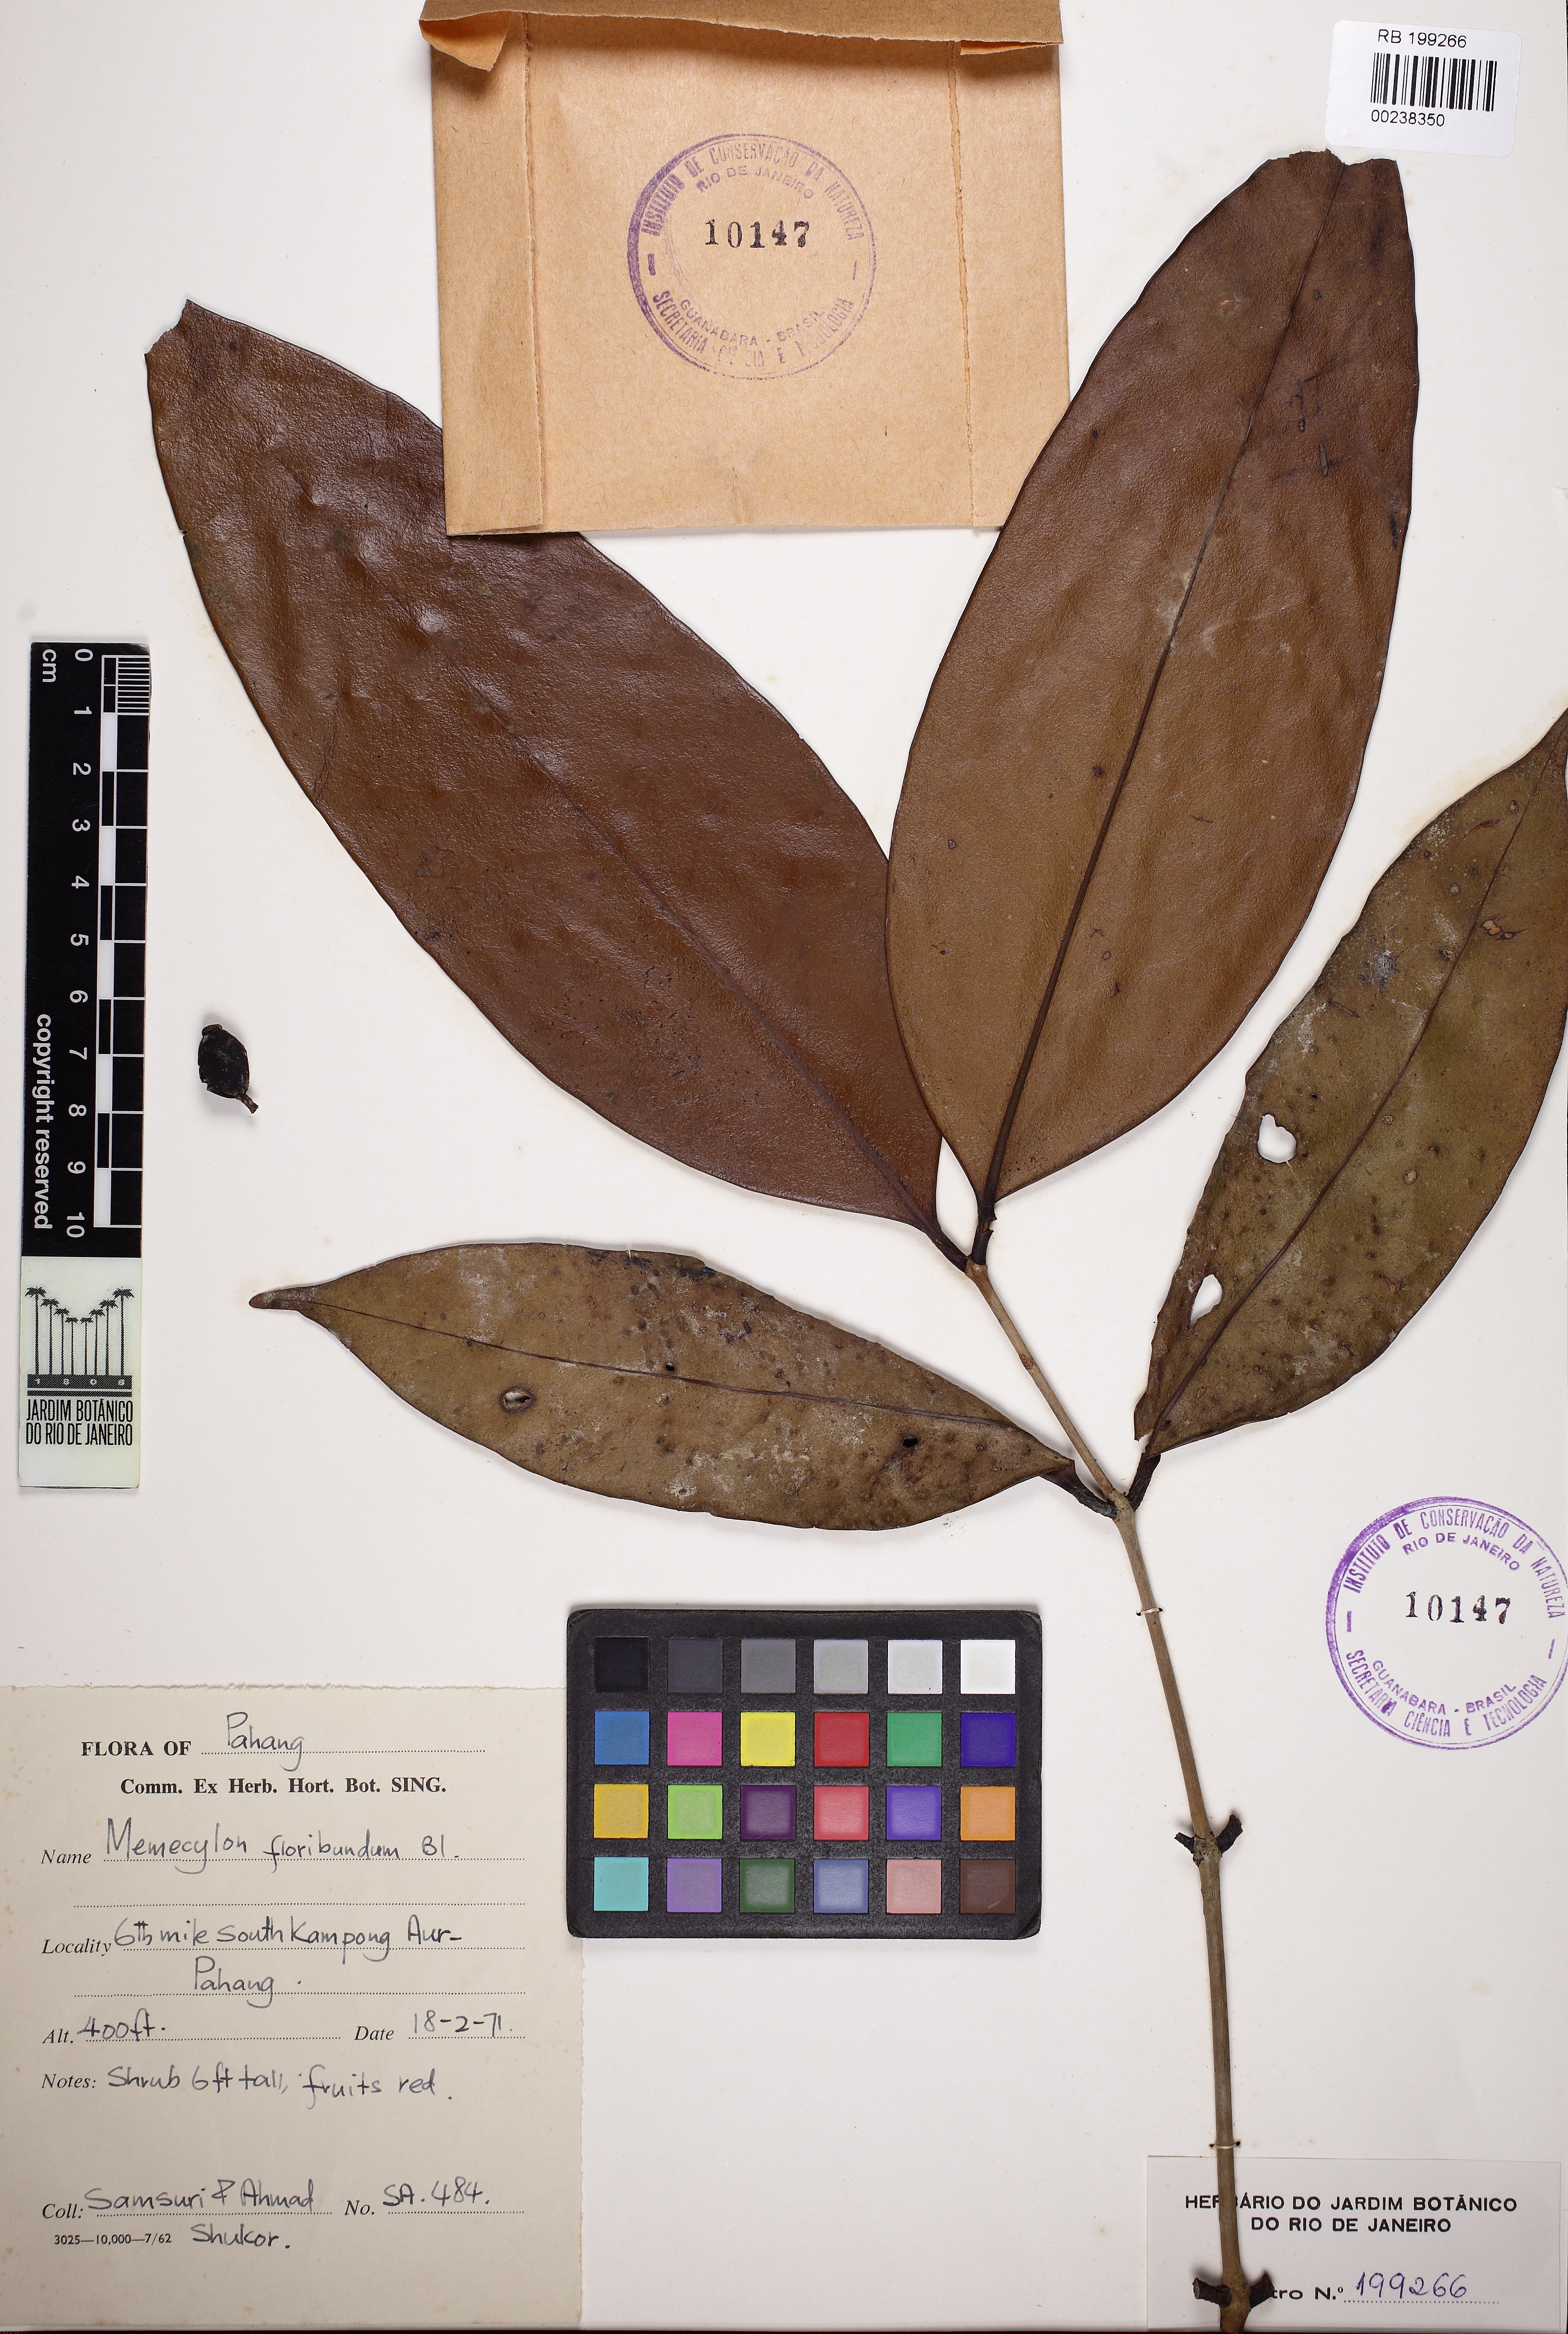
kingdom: Plantae
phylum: Tracheophyta
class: Magnoliopsida
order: Myrtales
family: Melastomataceae
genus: Memecylon
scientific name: Memecylon coeruleum
